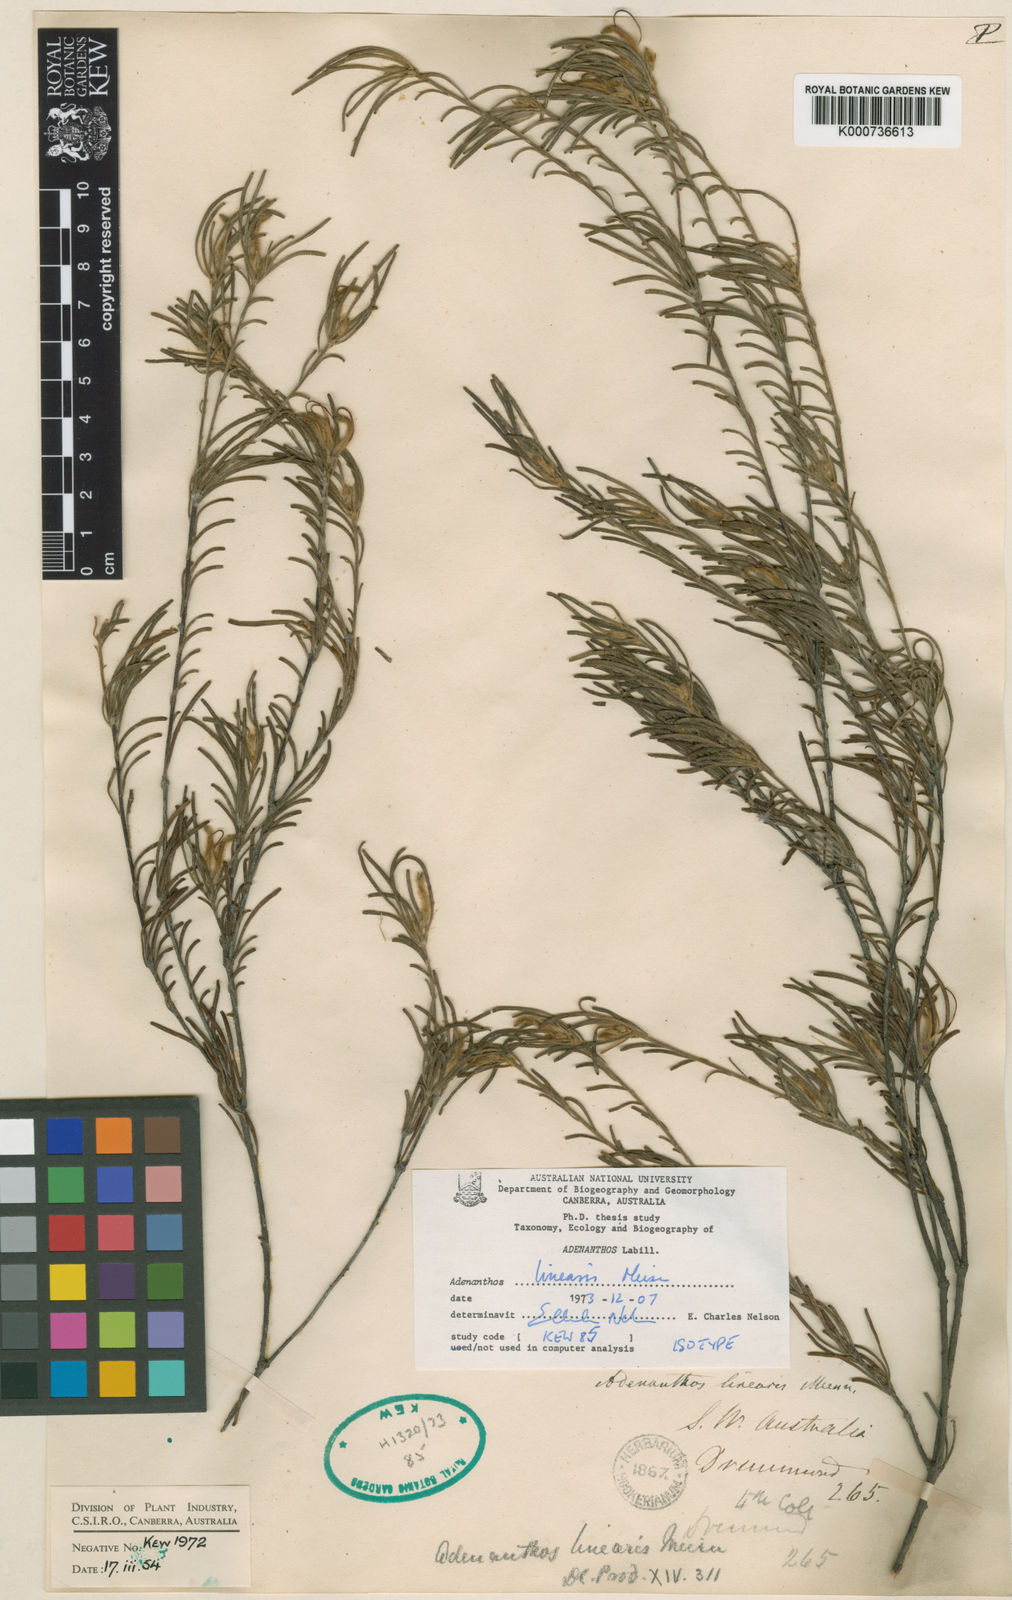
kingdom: Plantae
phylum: Tracheophyta
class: Magnoliopsida
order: Proteales
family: Proteaceae
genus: Adenanthos
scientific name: Adenanthos linearis
